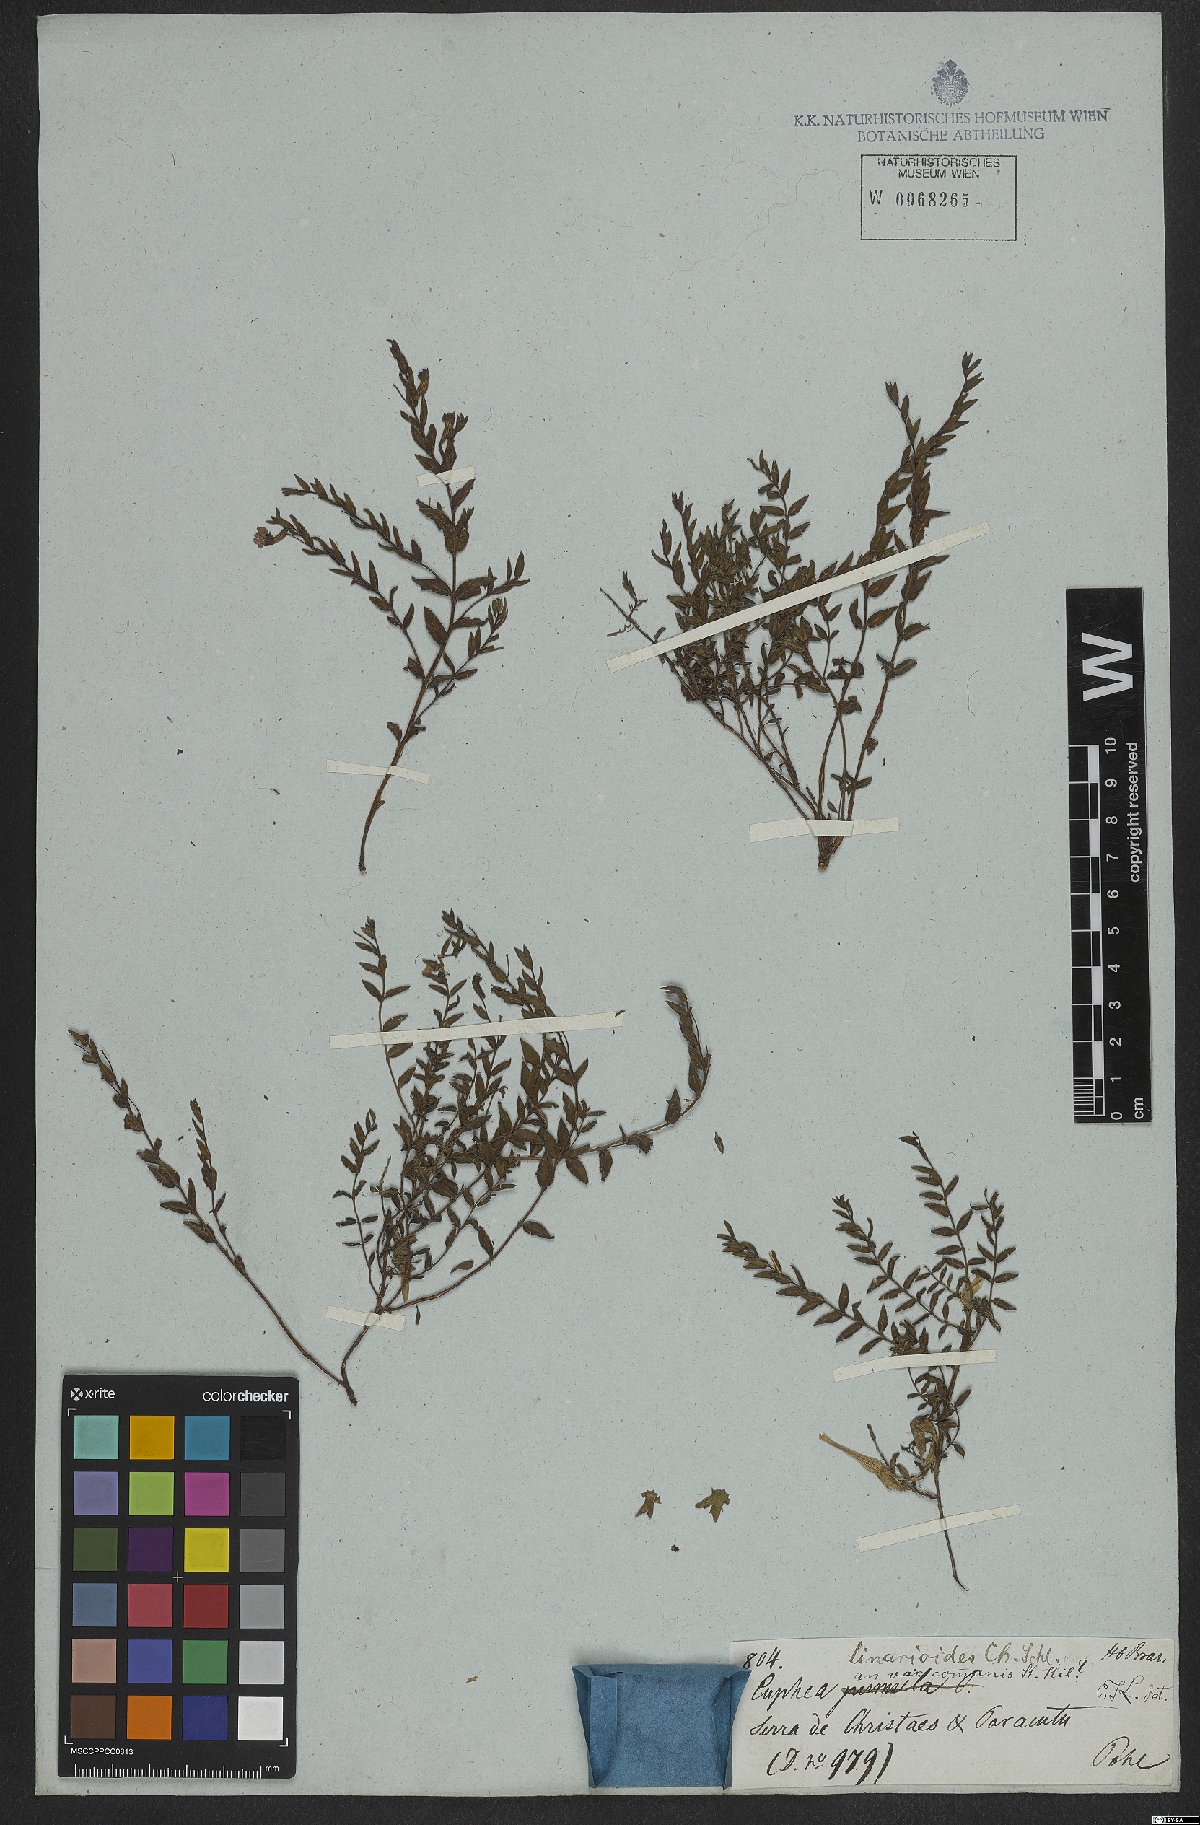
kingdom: Plantae
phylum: Tracheophyta
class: Magnoliopsida
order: Myrtales
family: Lythraceae
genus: Cuphea
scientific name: Cuphea linarioides
